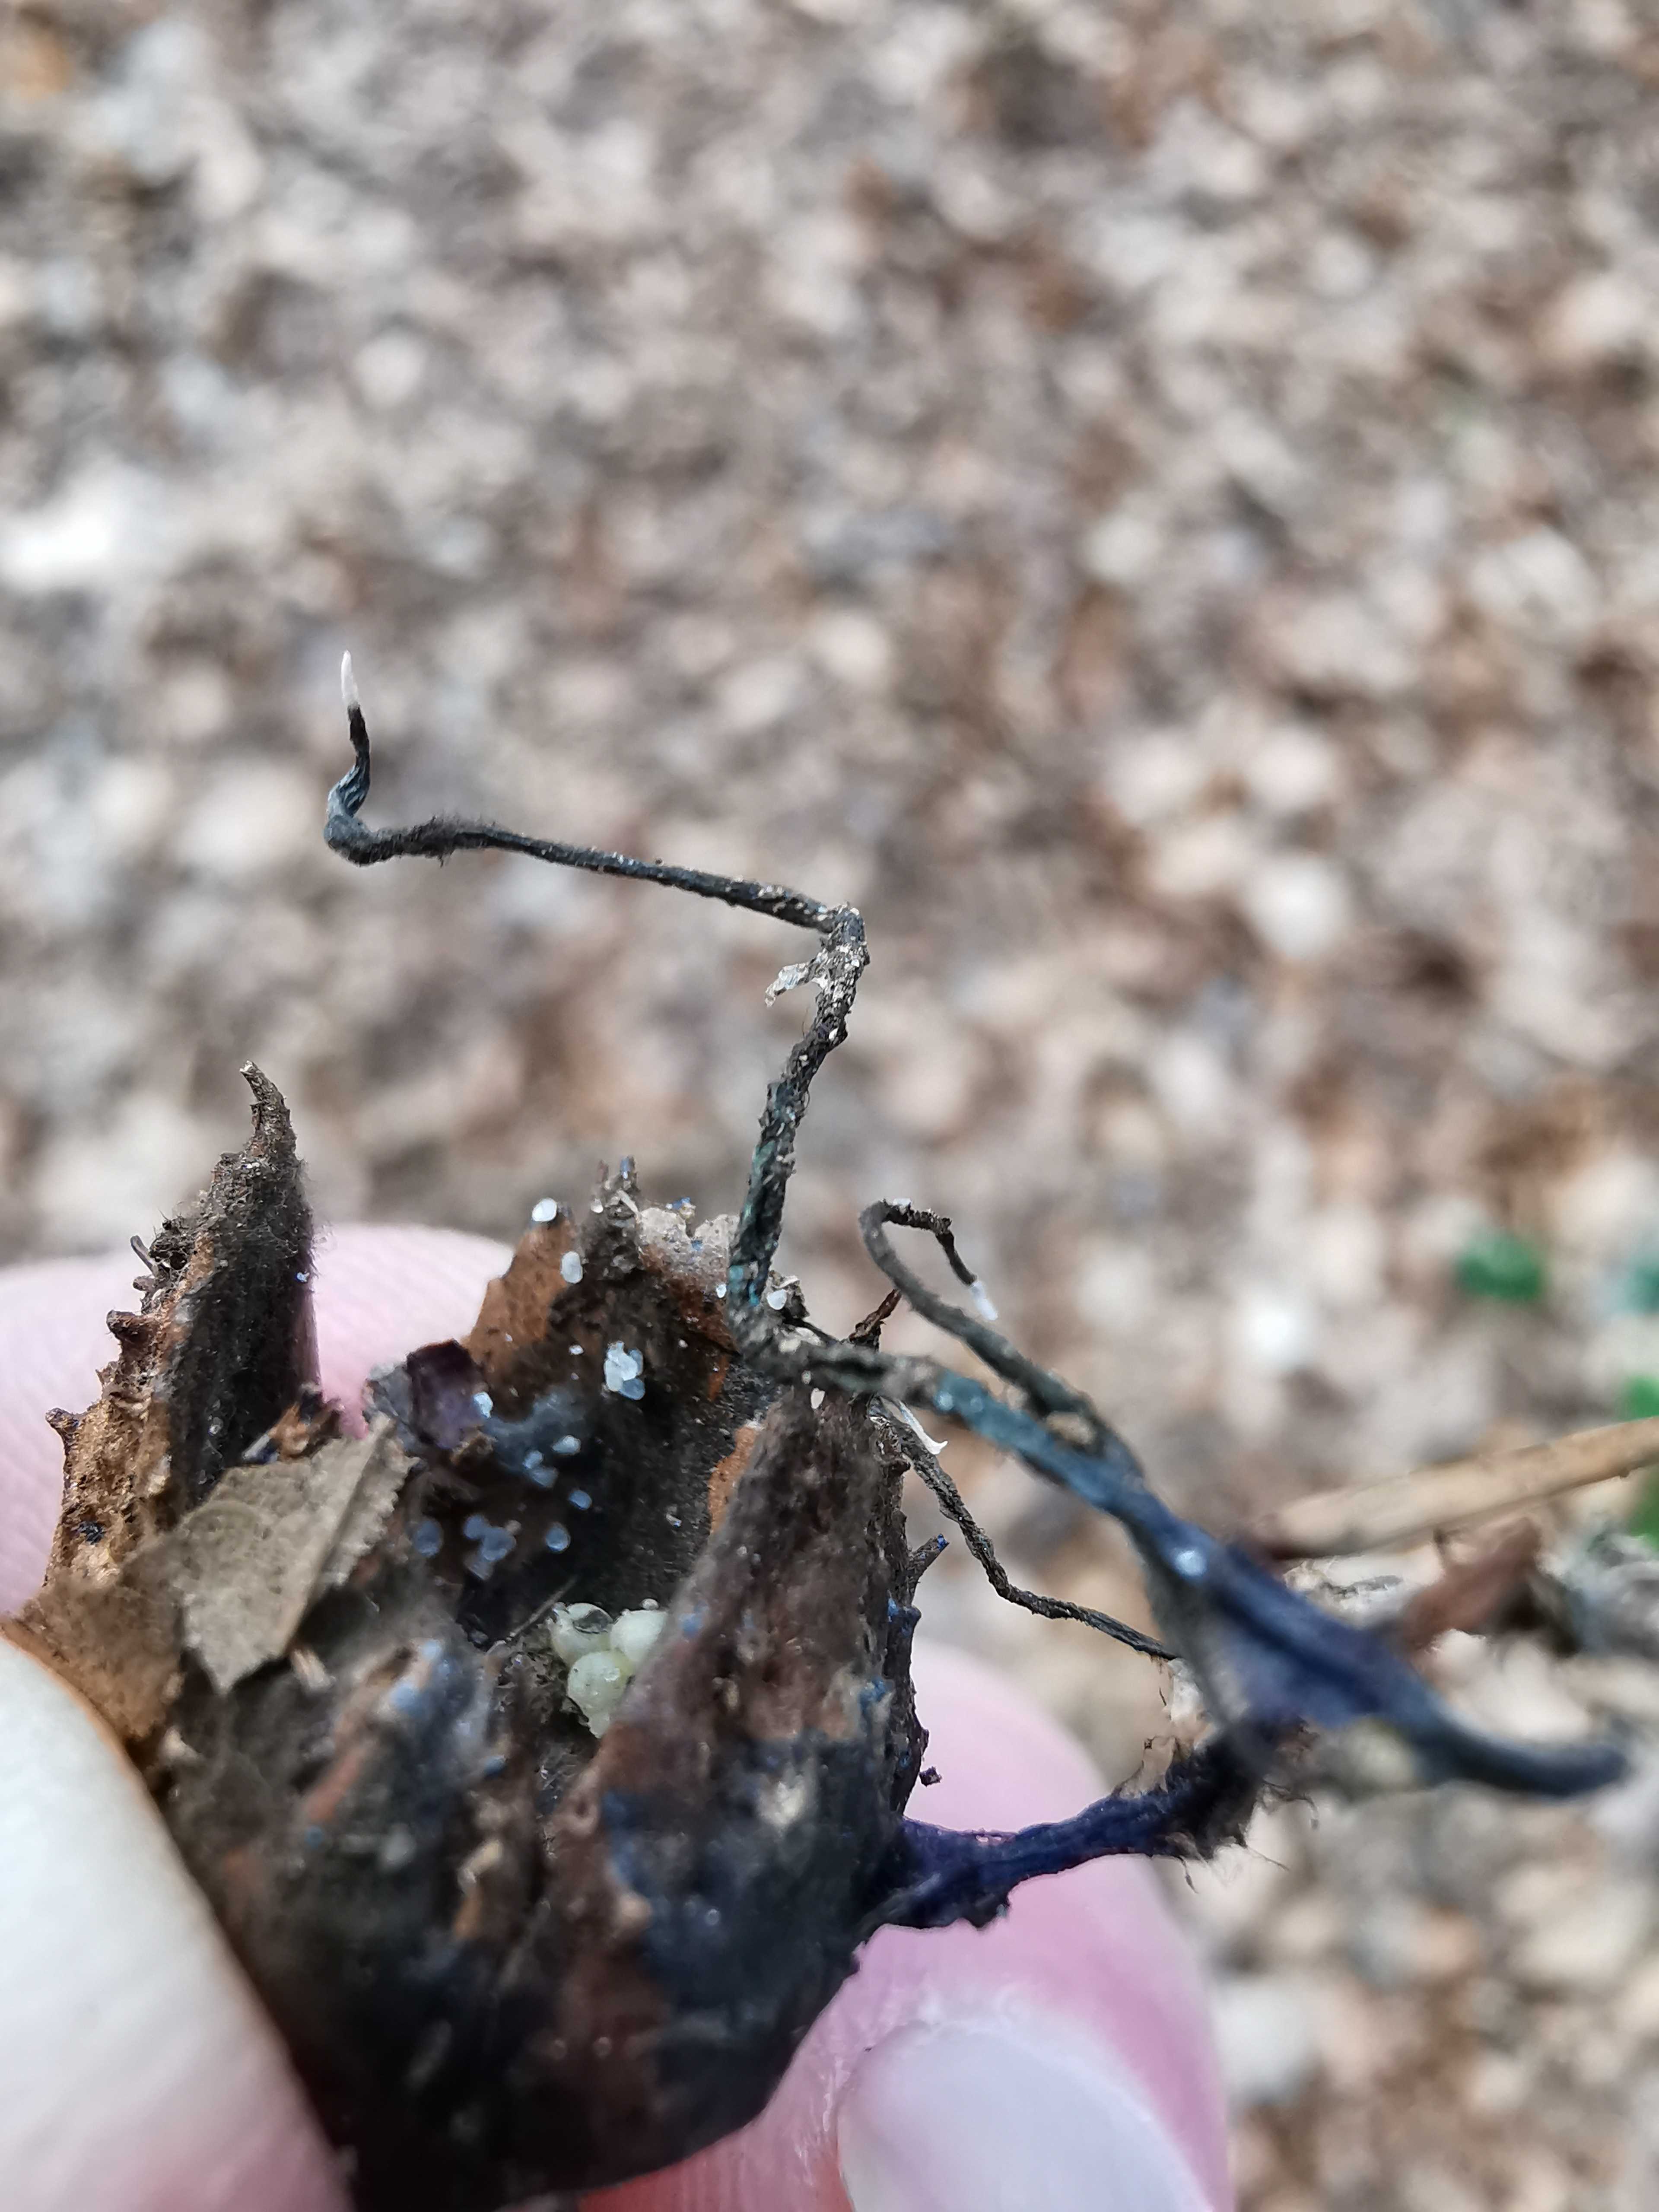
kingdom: Fungi
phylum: Ascomycota
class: Sordariomycetes
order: Xylariales
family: Xylariaceae
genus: Xylaria
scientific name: Xylaria carpophila
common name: bogskål-stødsvamp
